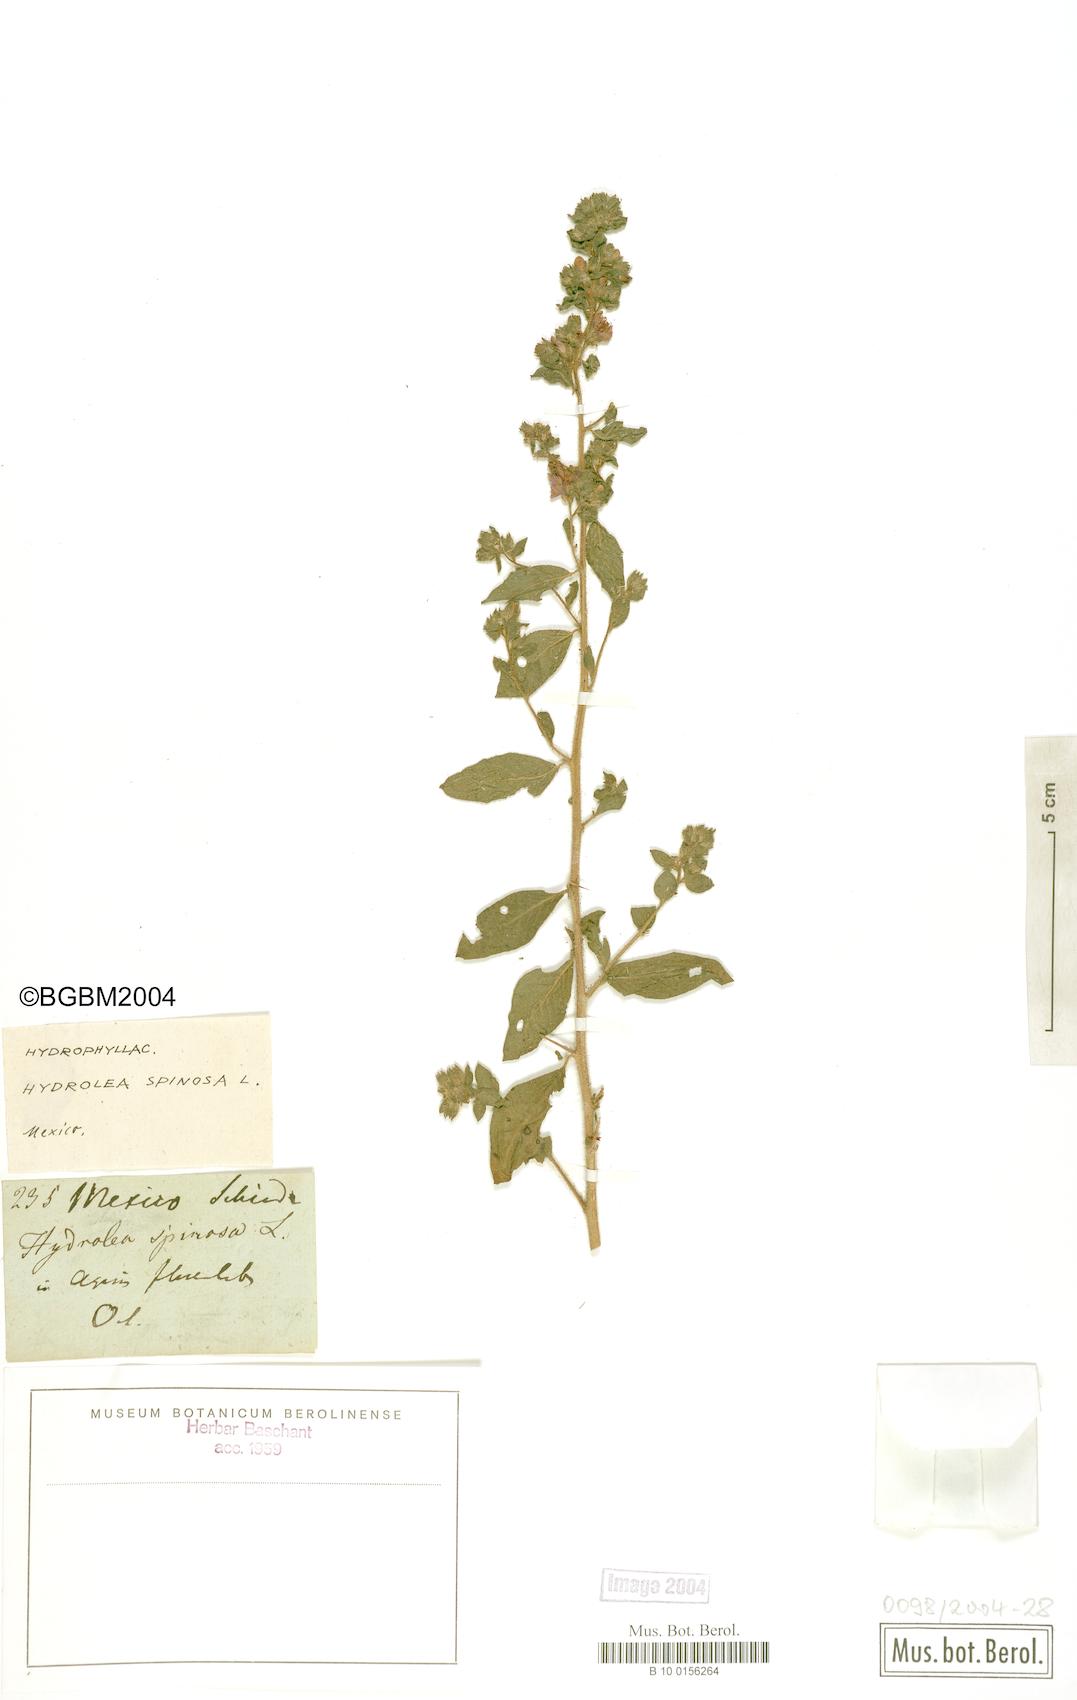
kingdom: Plantae
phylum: Tracheophyta
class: Magnoliopsida
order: Solanales
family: Hydroleaceae
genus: Hydrolea
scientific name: Hydrolea spinosa
